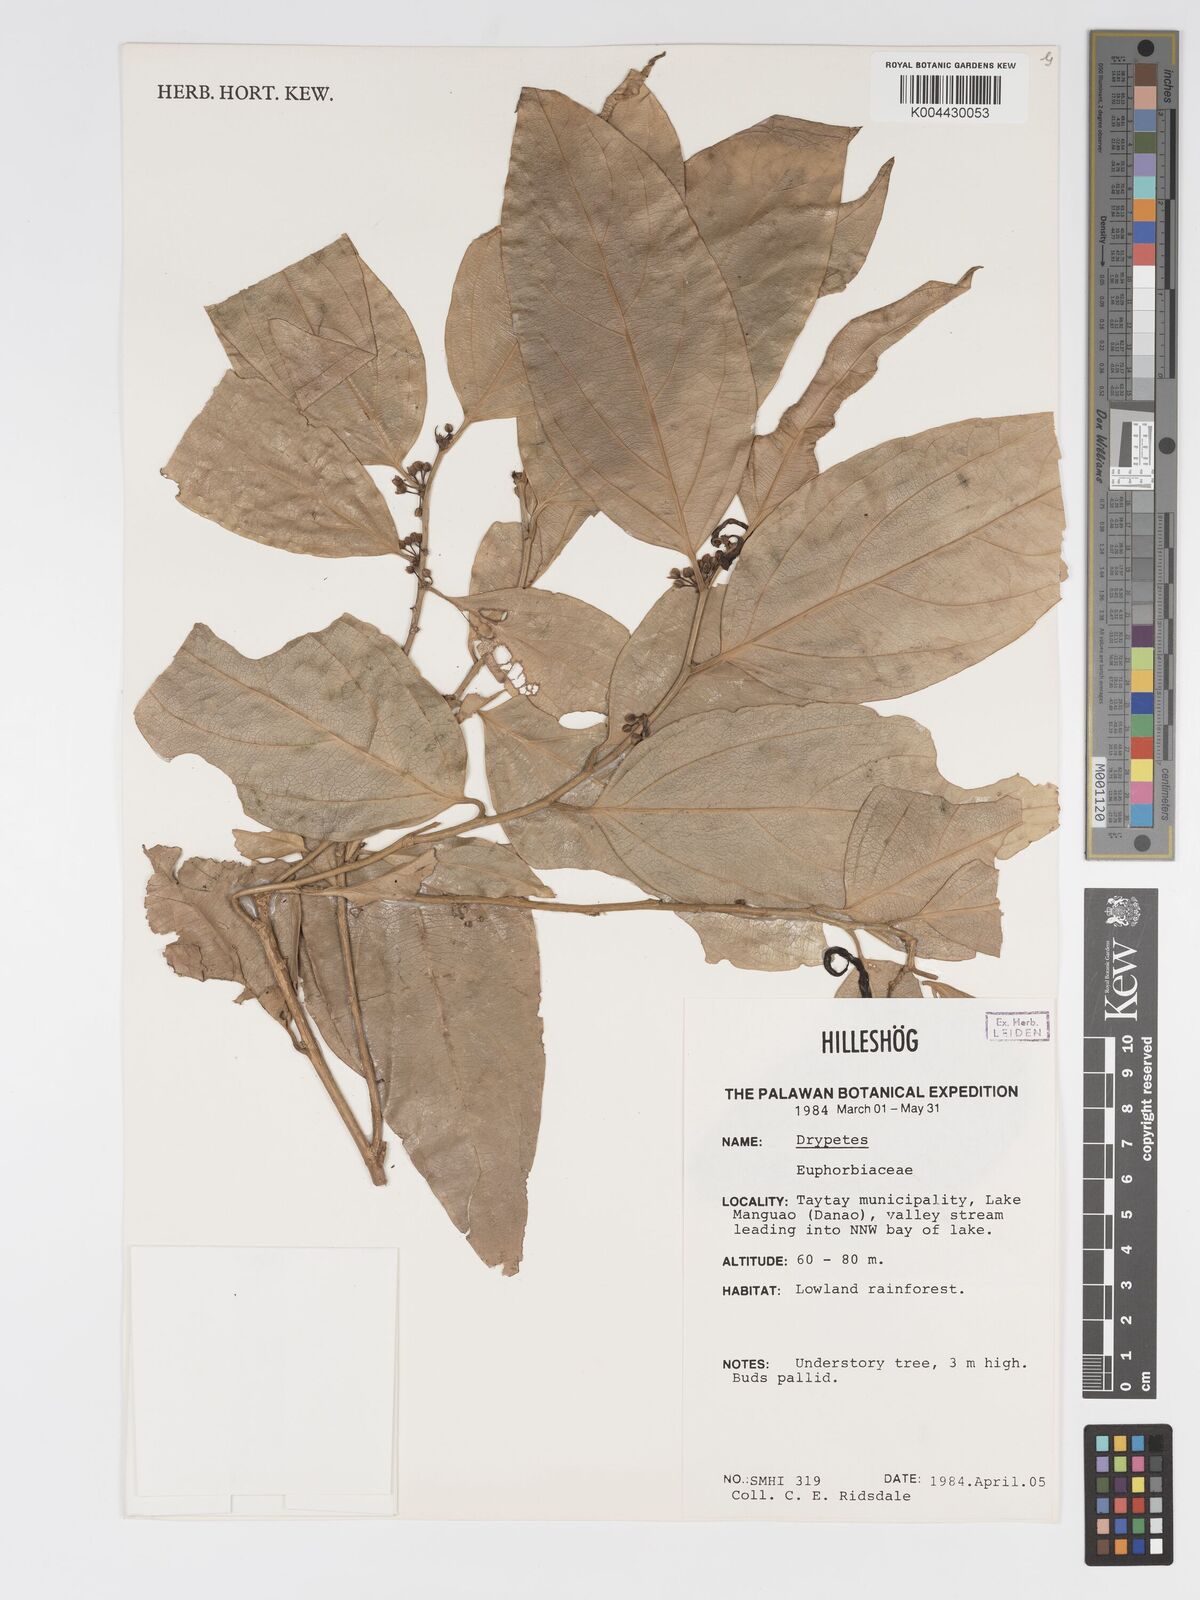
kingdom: Plantae
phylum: Tracheophyta
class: Magnoliopsida
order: Malpighiales
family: Putranjivaceae
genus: Drypetes
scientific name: Drypetes
